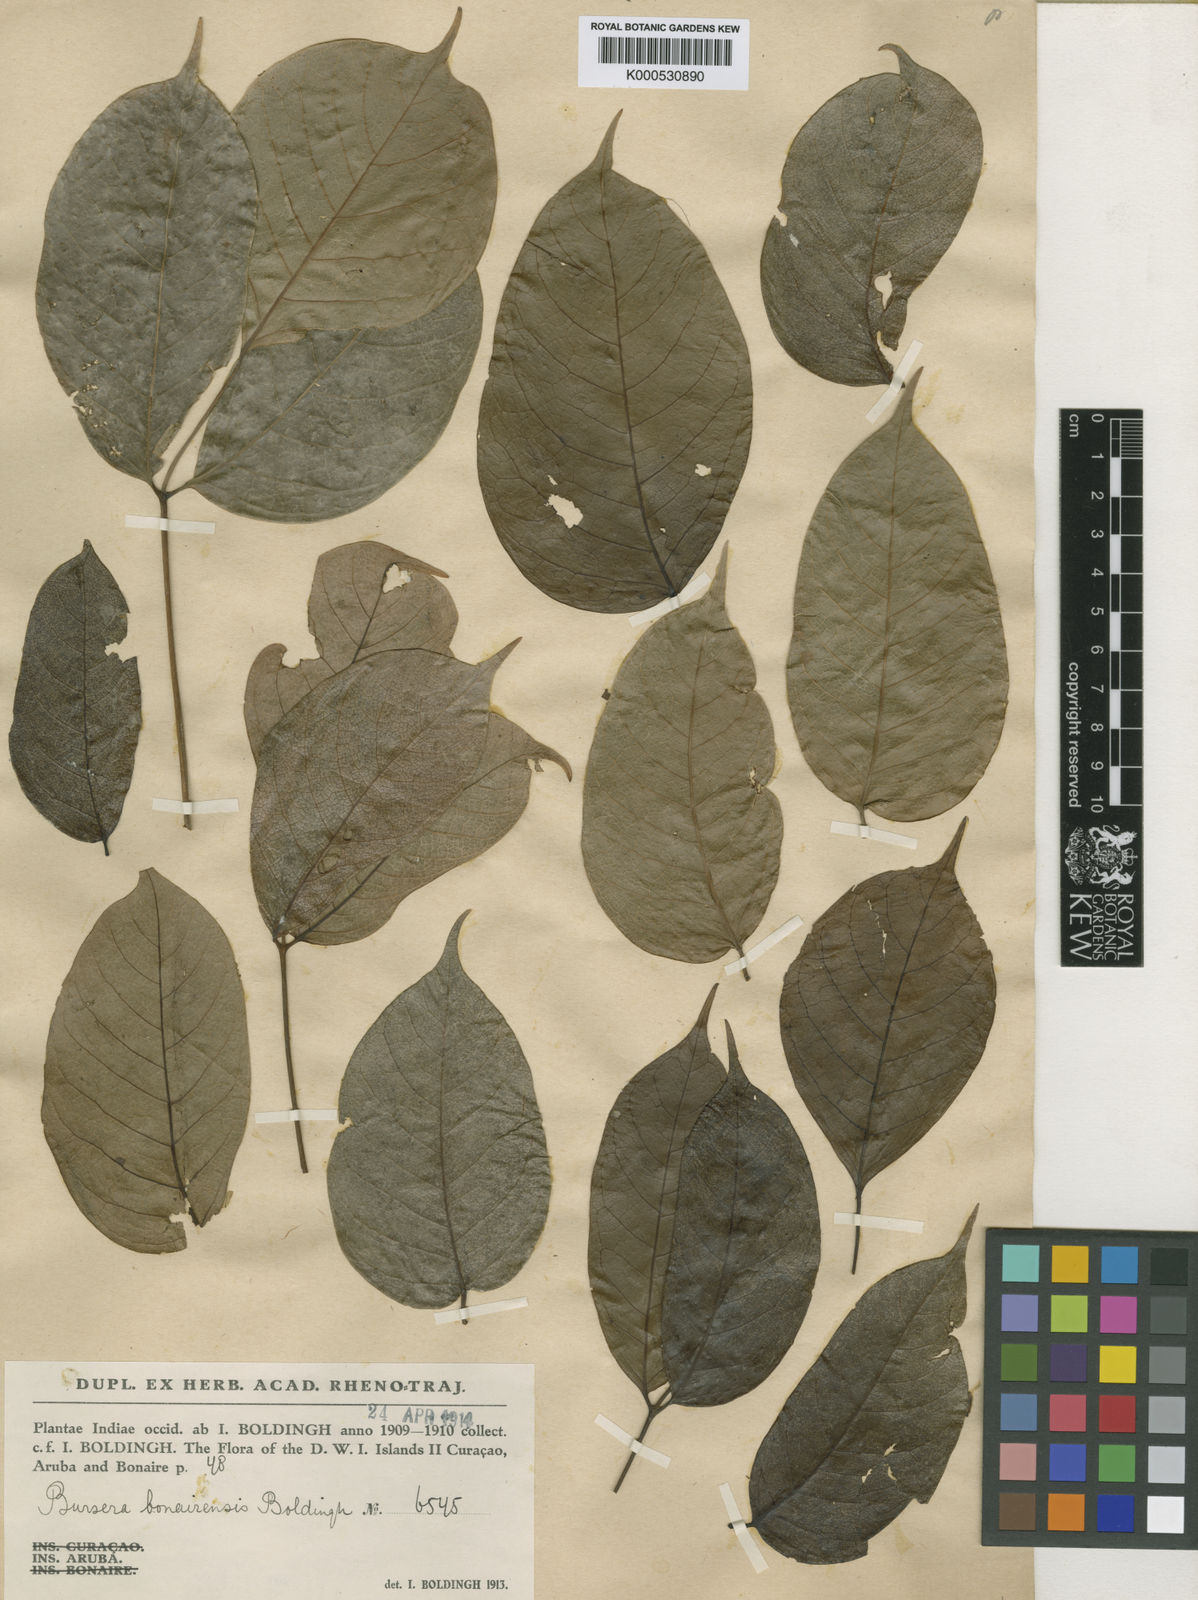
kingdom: Plantae
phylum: Tracheophyta
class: Magnoliopsida
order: Sapindales
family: Burseraceae
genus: Bursera
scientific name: Bursera simaruba
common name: Turpentine tree
